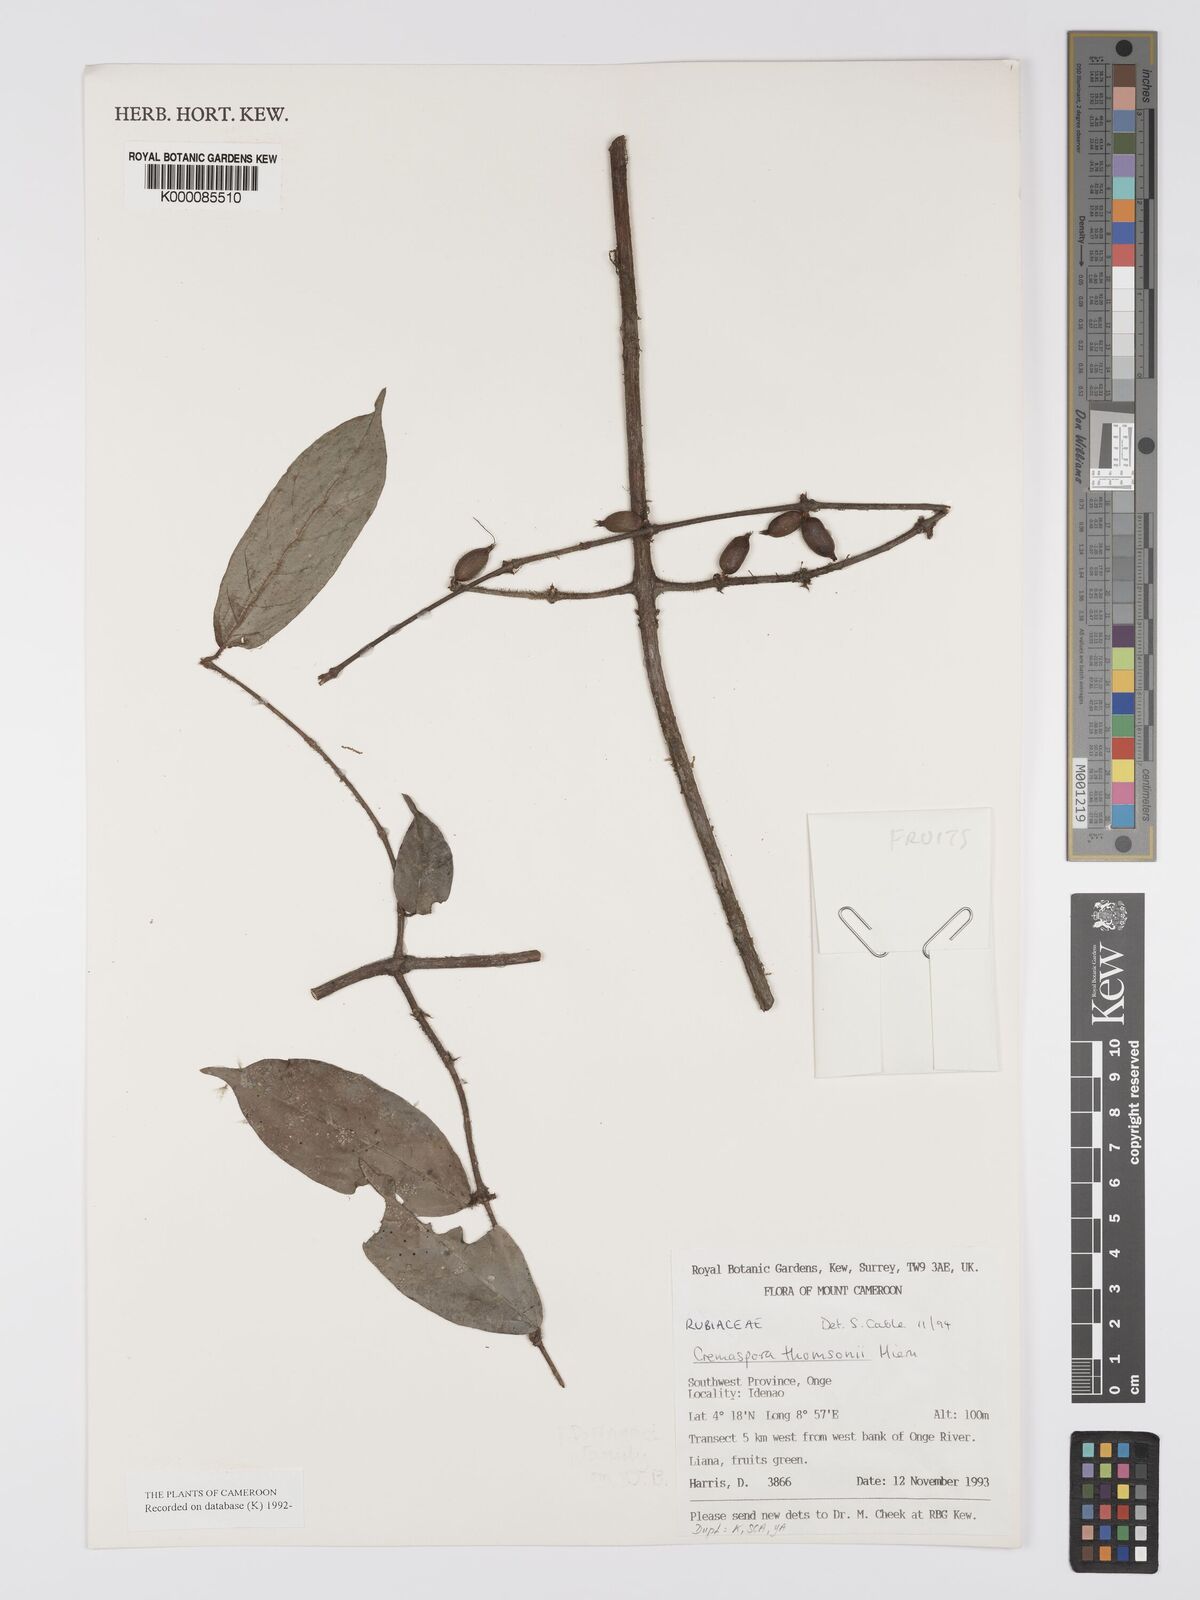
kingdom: Plantae
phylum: Tracheophyta
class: Magnoliopsida
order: Gentianales
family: Rubiaceae
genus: Cremaspora
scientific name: Cremaspora thomsonii
